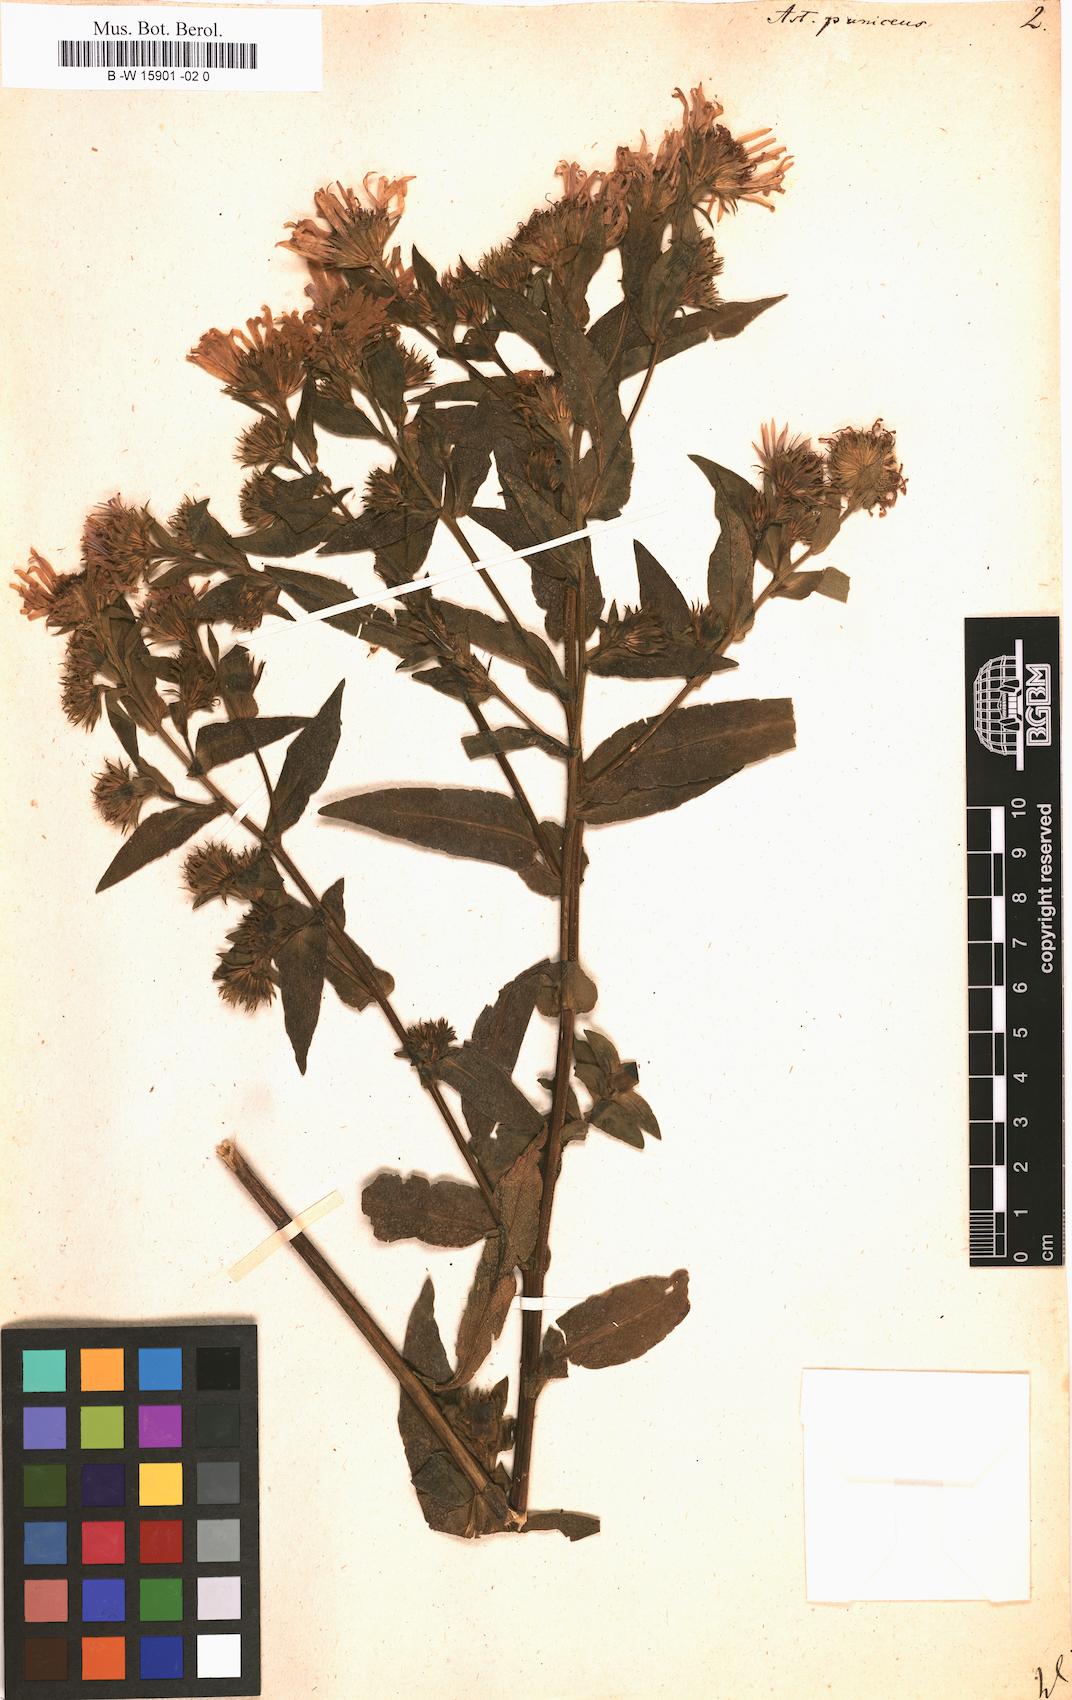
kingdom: Plantae
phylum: Tracheophyta
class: Magnoliopsida
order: Asterales
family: Asteraceae
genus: Symphyotrichum
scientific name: Symphyotrichum puniceum
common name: Bog aster
